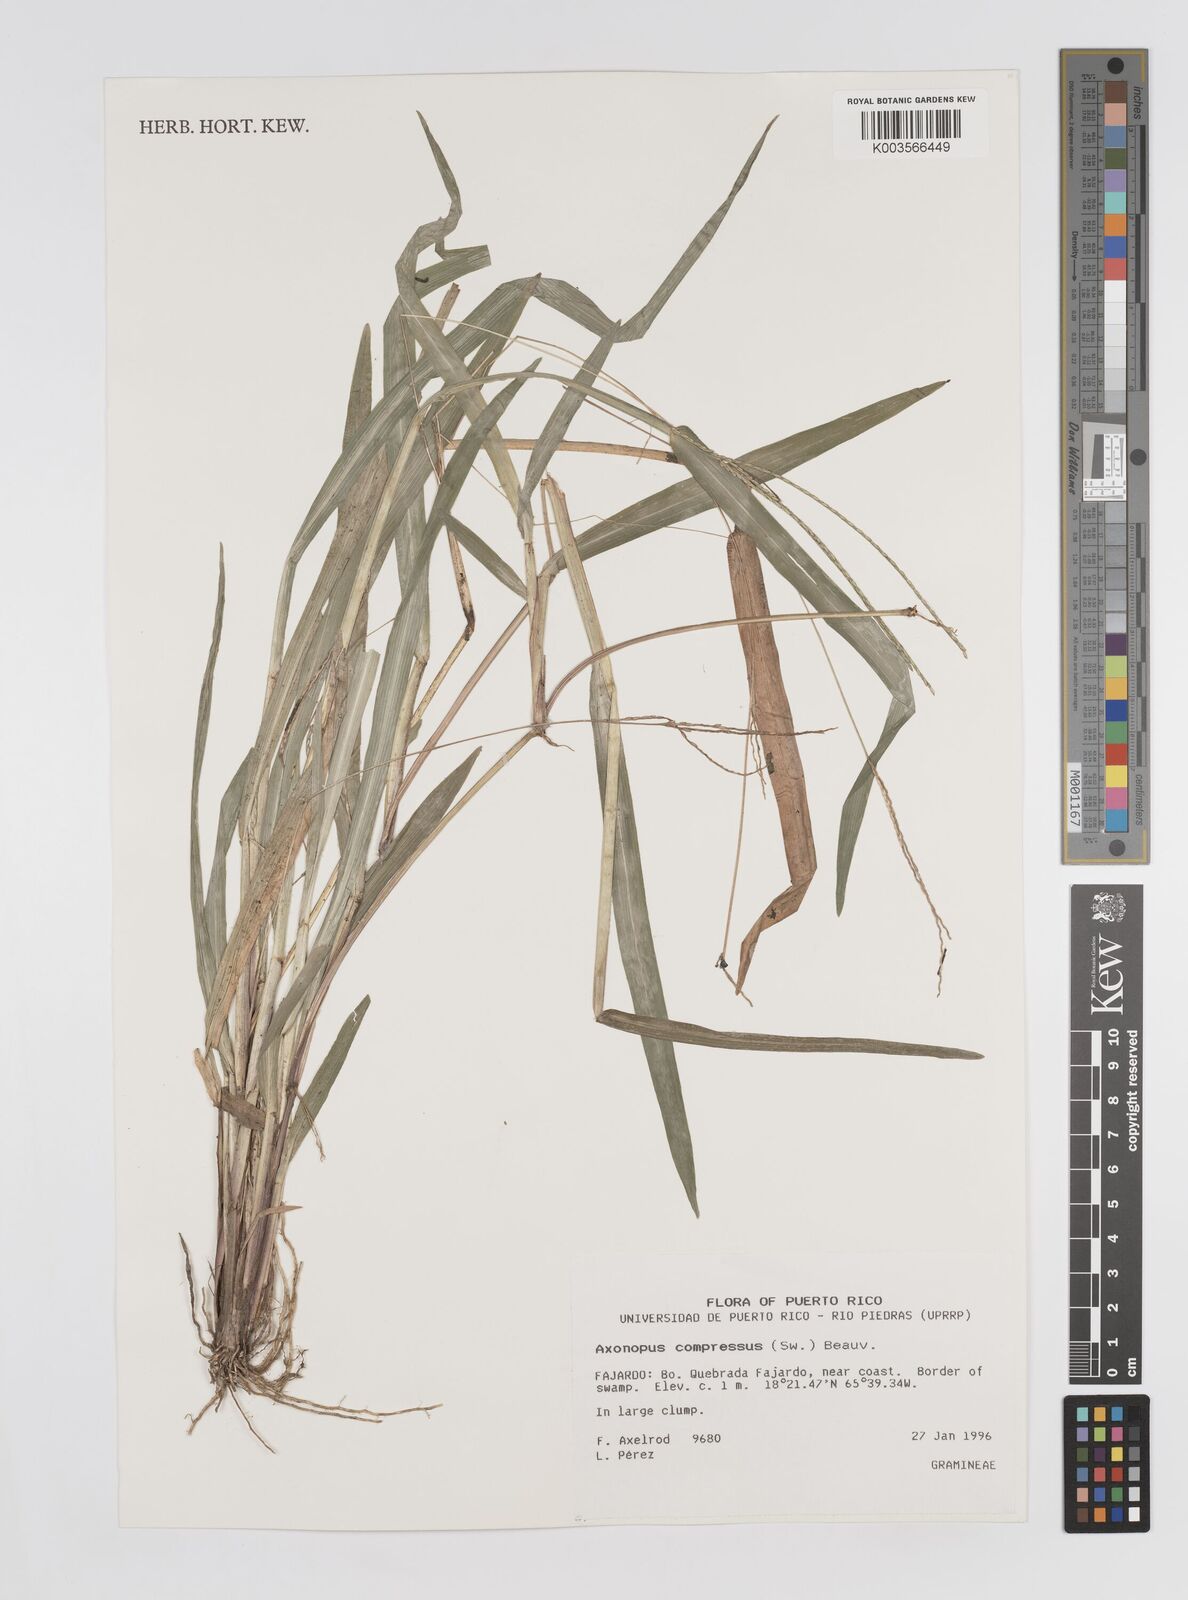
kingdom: Plantae
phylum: Tracheophyta
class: Liliopsida
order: Poales
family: Poaceae
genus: Axonopus
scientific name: Axonopus compressus
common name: American carpet grass
